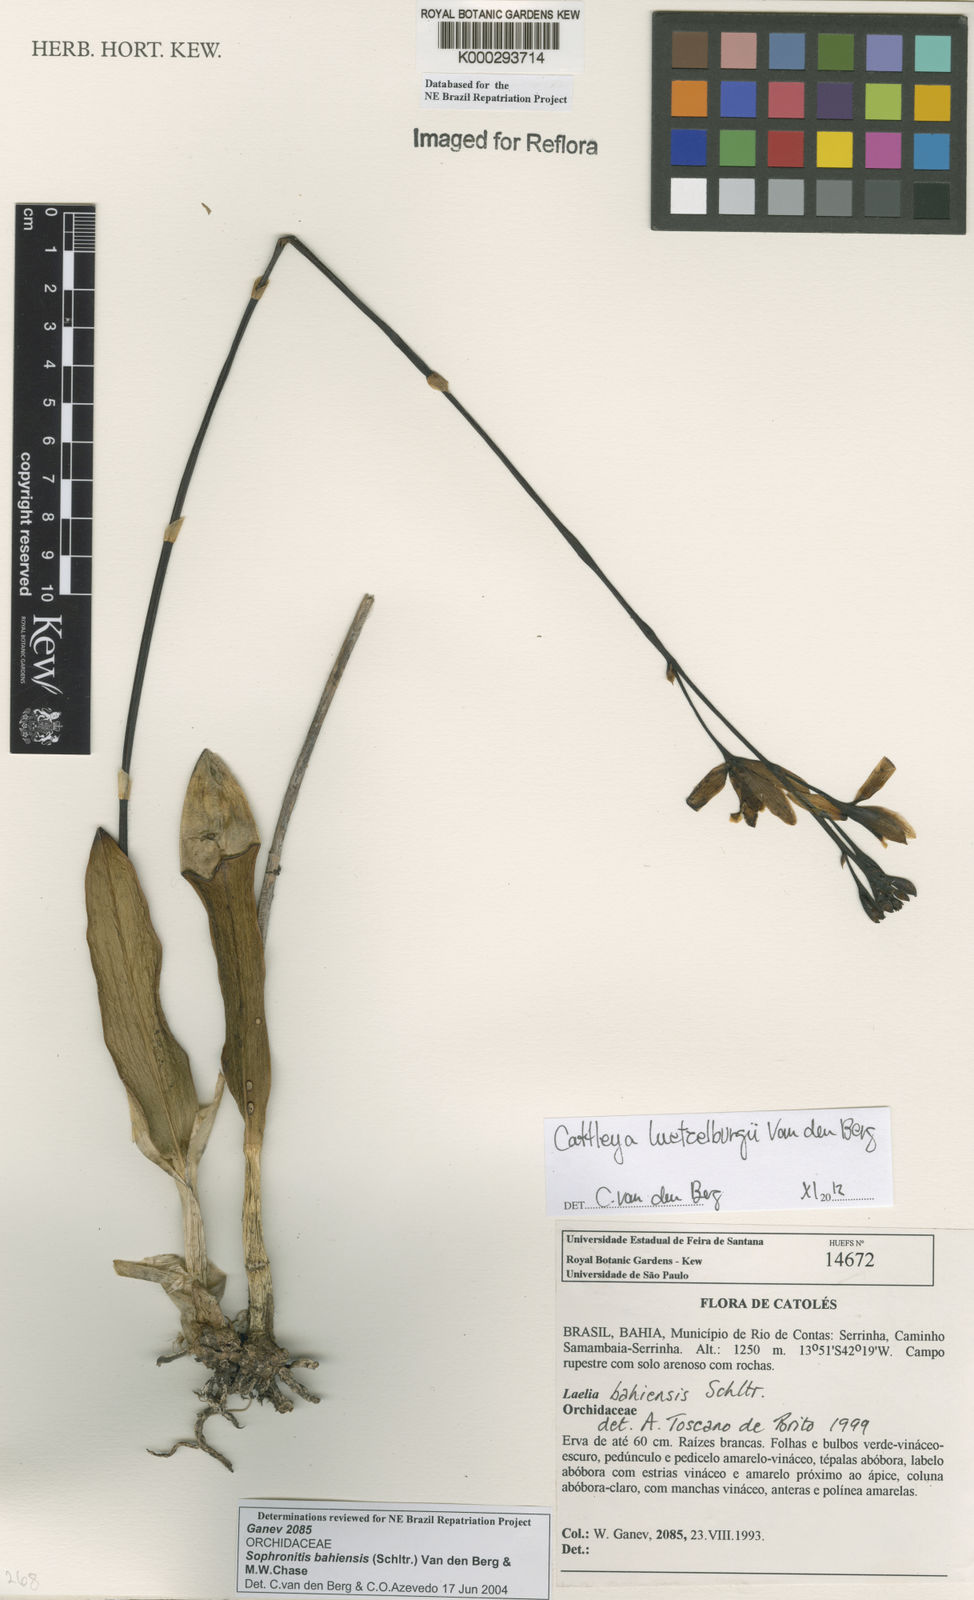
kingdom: Plantae
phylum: Tracheophyta
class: Liliopsida
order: Asparagales
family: Orchidaceae
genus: Cattleya
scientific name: Cattleya luetzelburgii
